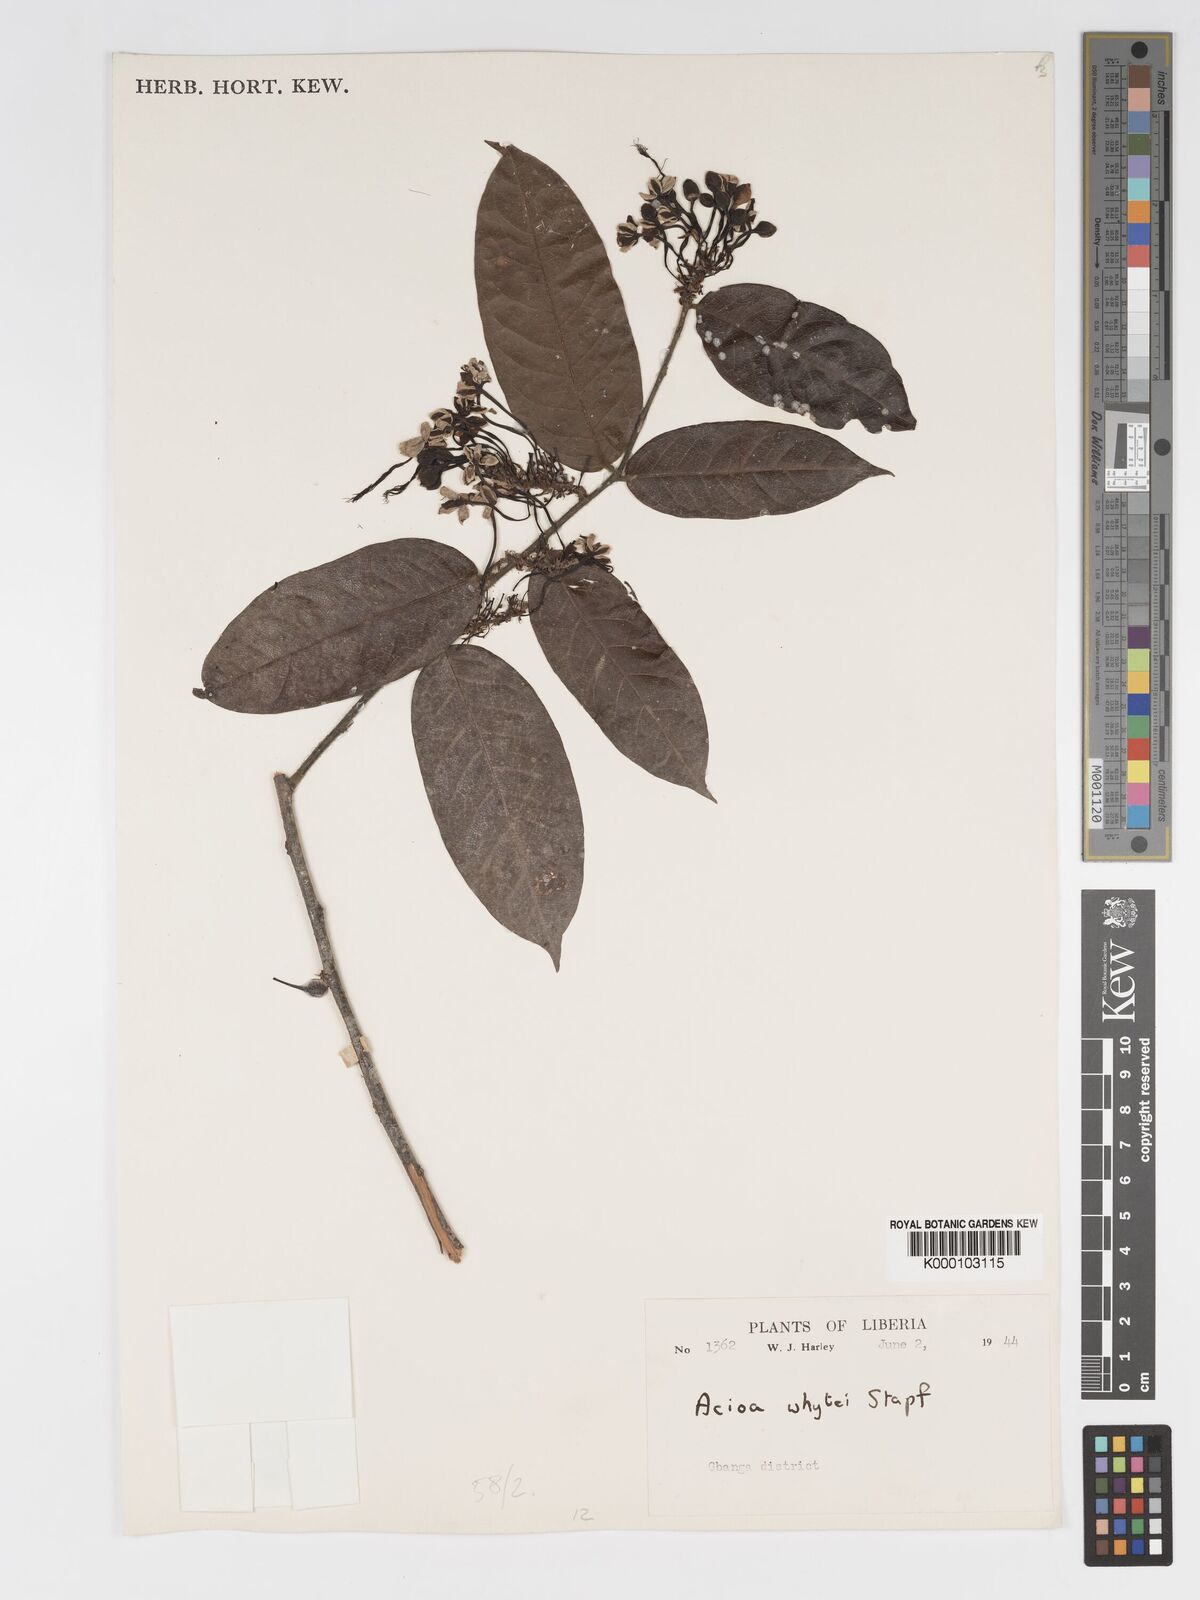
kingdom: Plantae
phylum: Tracheophyta
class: Magnoliopsida
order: Malpighiales
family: Chrysobalanaceae
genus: Dactyladenia
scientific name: Dactyladenia whytei
